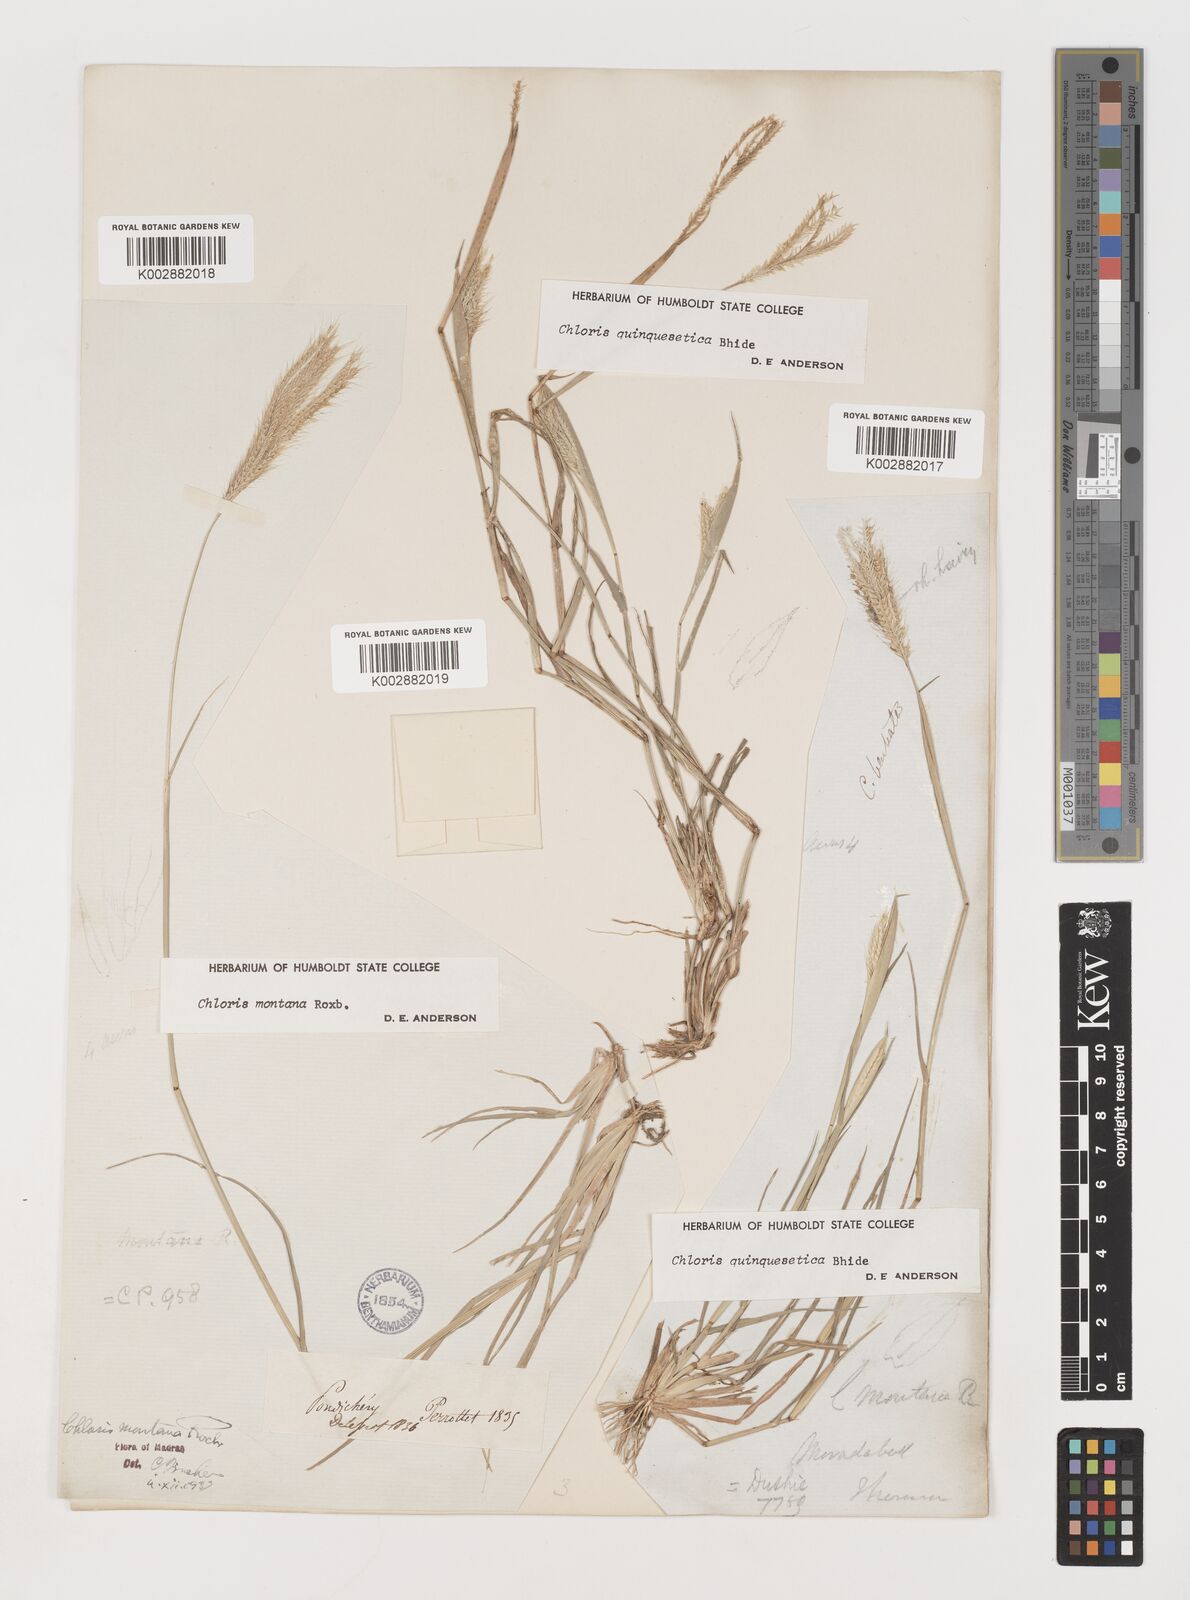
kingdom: Plantae
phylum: Tracheophyta
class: Liliopsida
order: Poales
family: Poaceae
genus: Chloris
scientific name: Chloris montana
